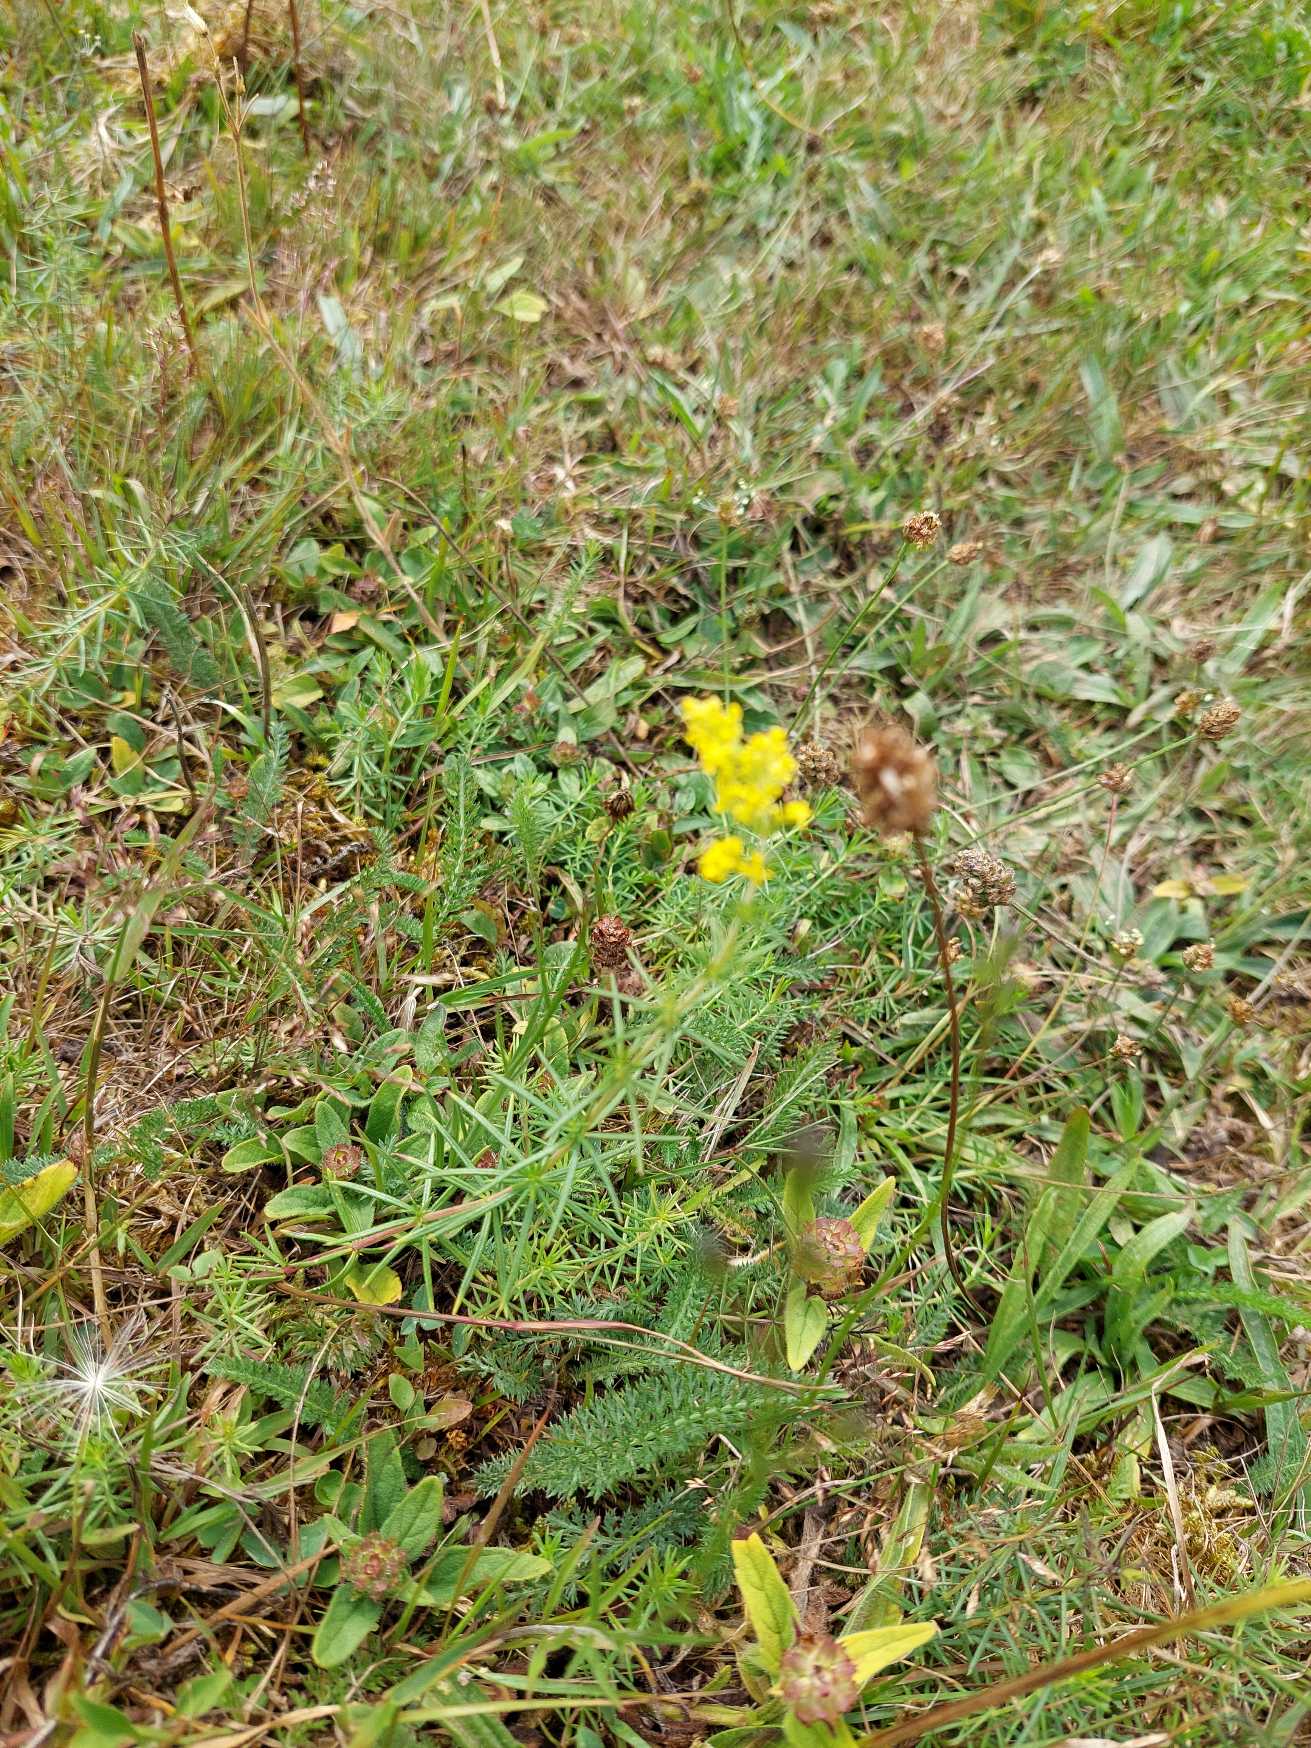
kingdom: Plantae
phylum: Tracheophyta
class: Magnoliopsida
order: Gentianales
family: Rubiaceae
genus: Galium
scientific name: Galium verum
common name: Gul snerre
